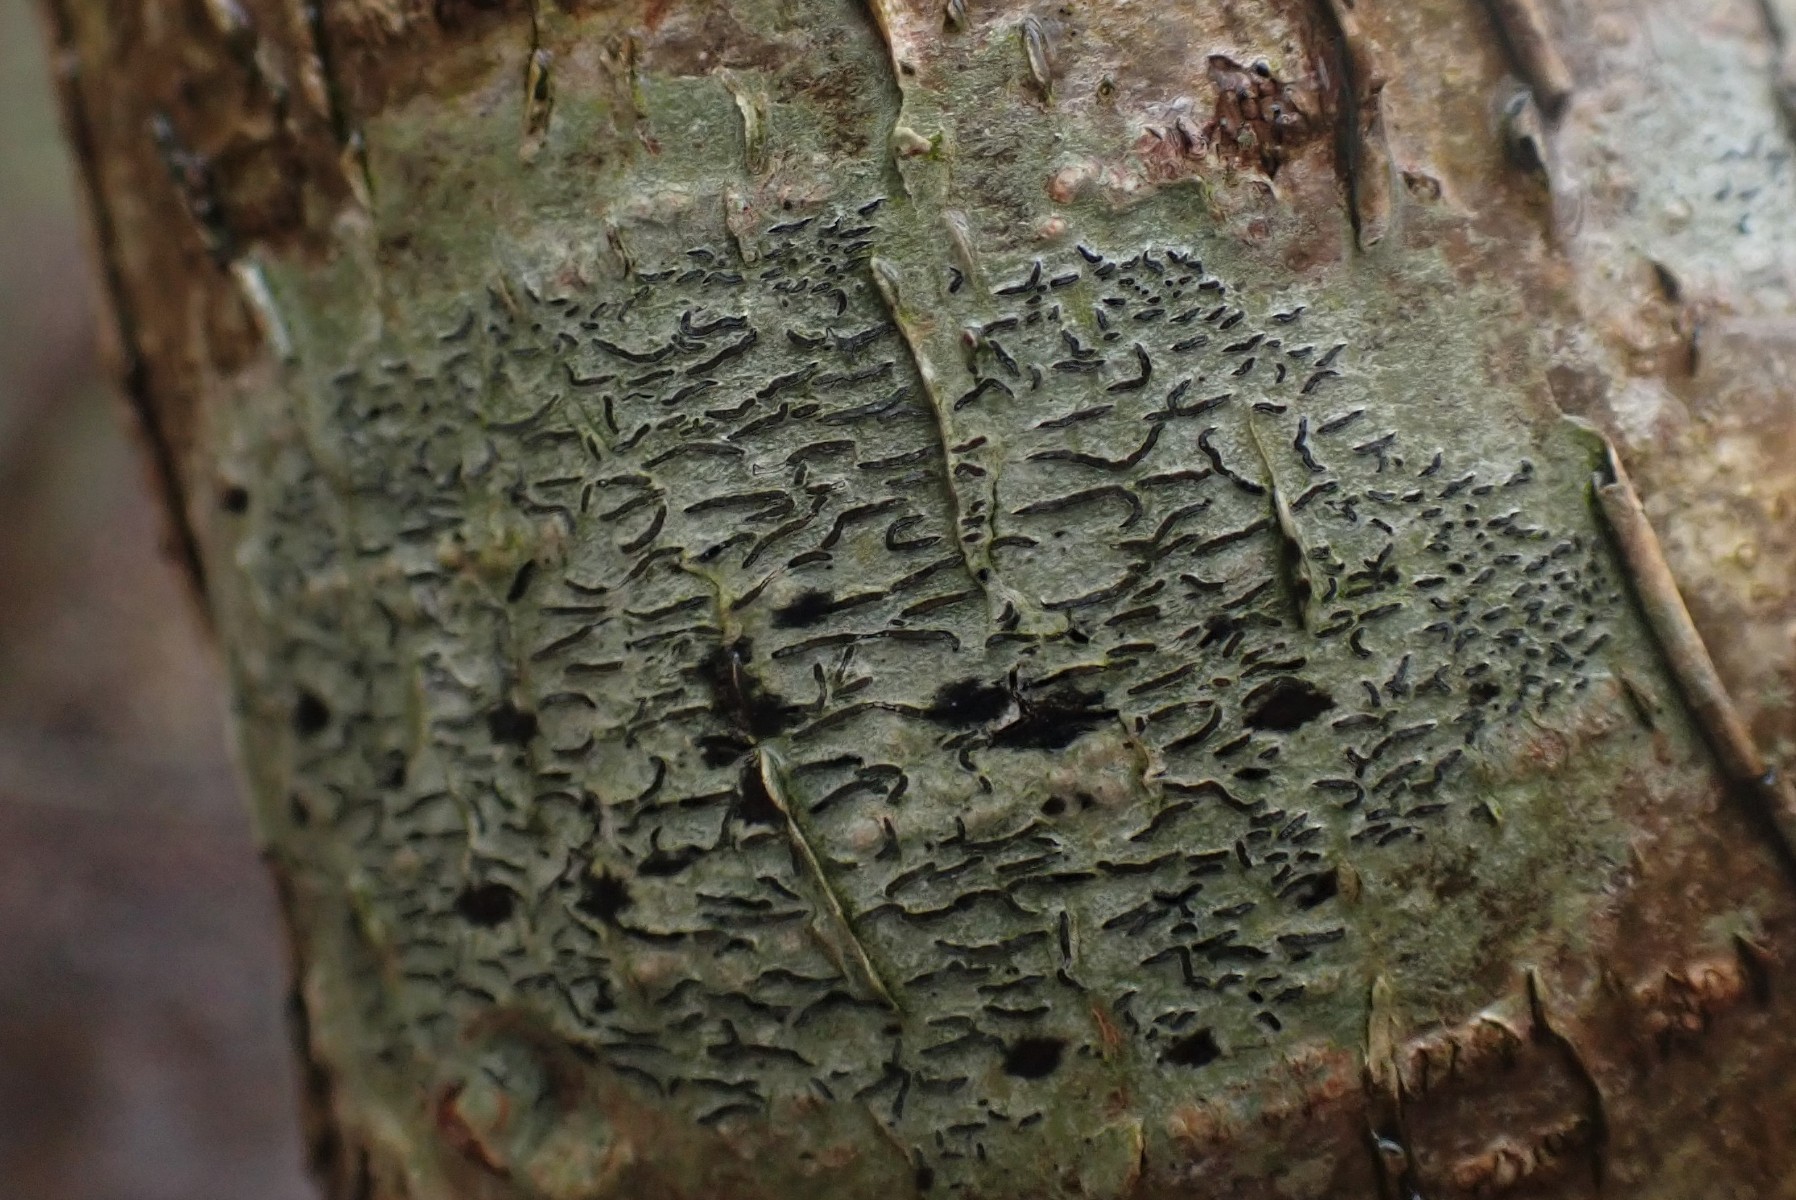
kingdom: Fungi
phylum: Ascomycota
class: Lecanoromycetes
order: Ostropales
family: Graphidaceae
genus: Graphis
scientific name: Graphis scripta
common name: almindelig skriftlav
